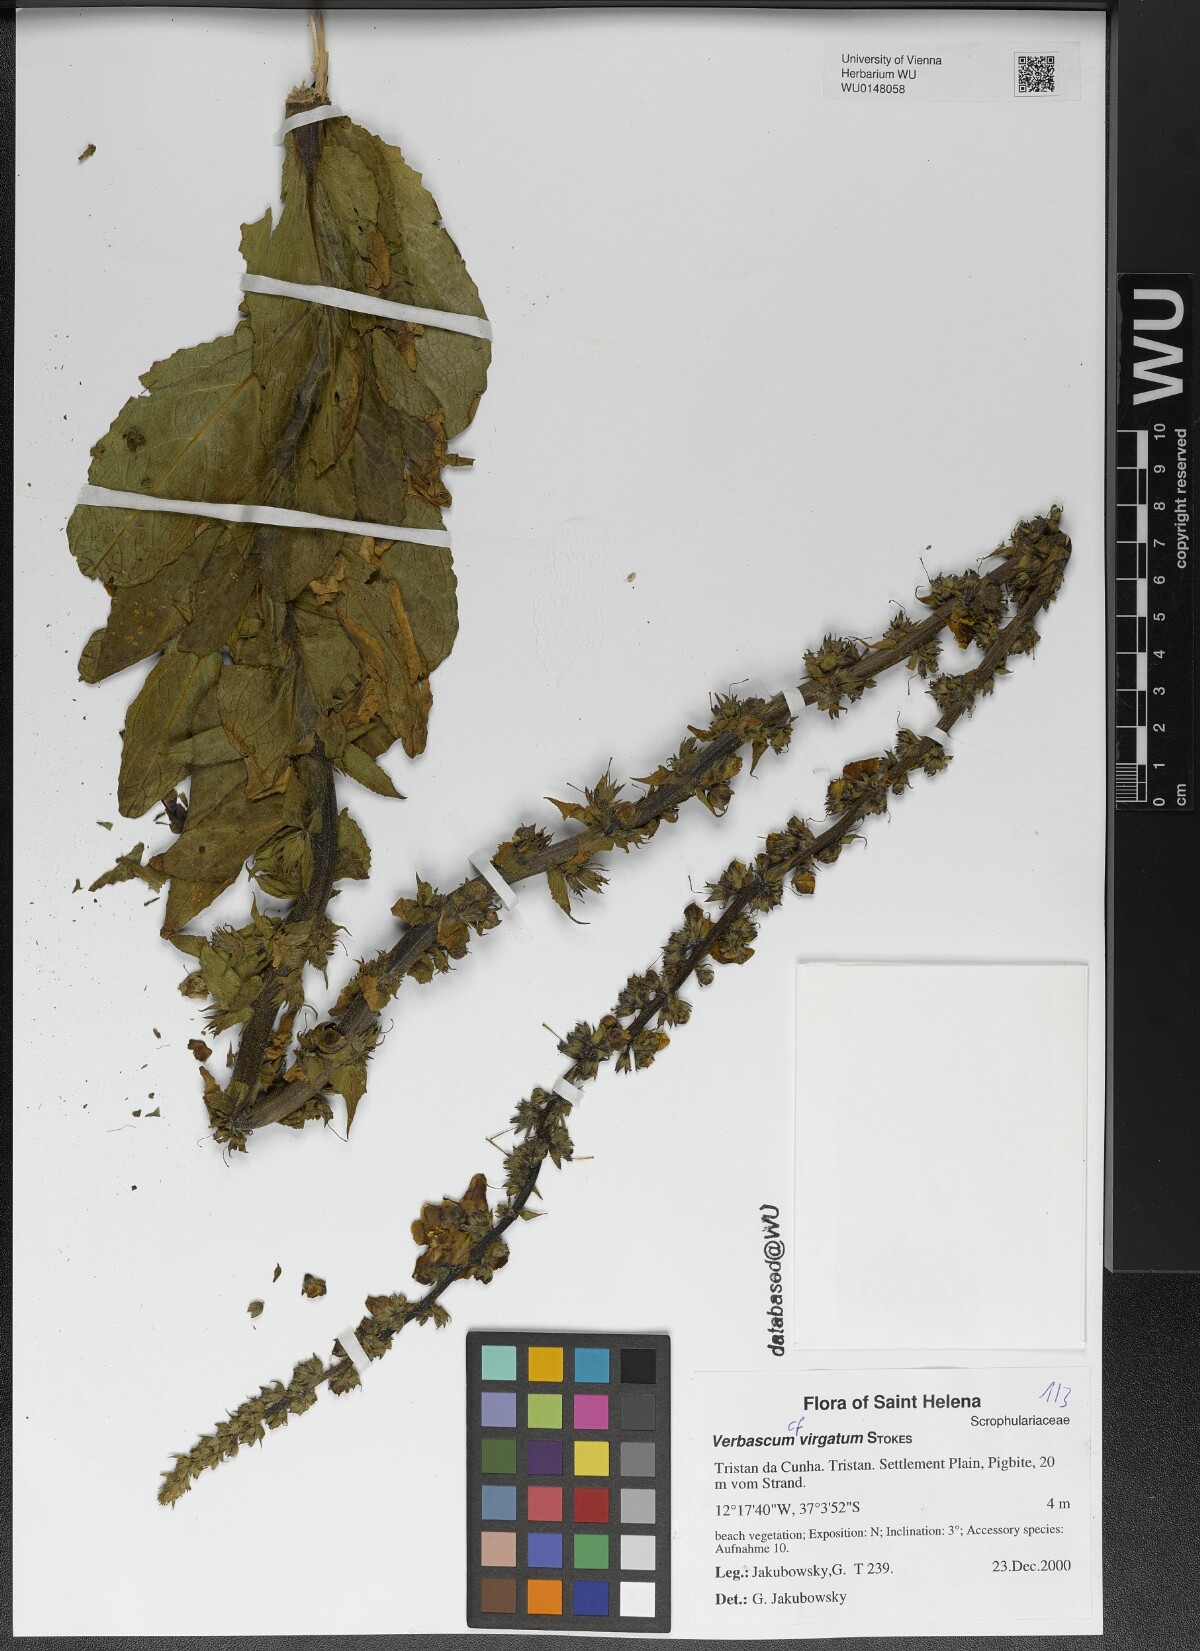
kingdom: Plantae
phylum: Tracheophyta
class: Magnoliopsida
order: Lamiales
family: Scrophulariaceae
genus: Verbascum
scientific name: Verbascum virgatum
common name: Twiggy mullein
